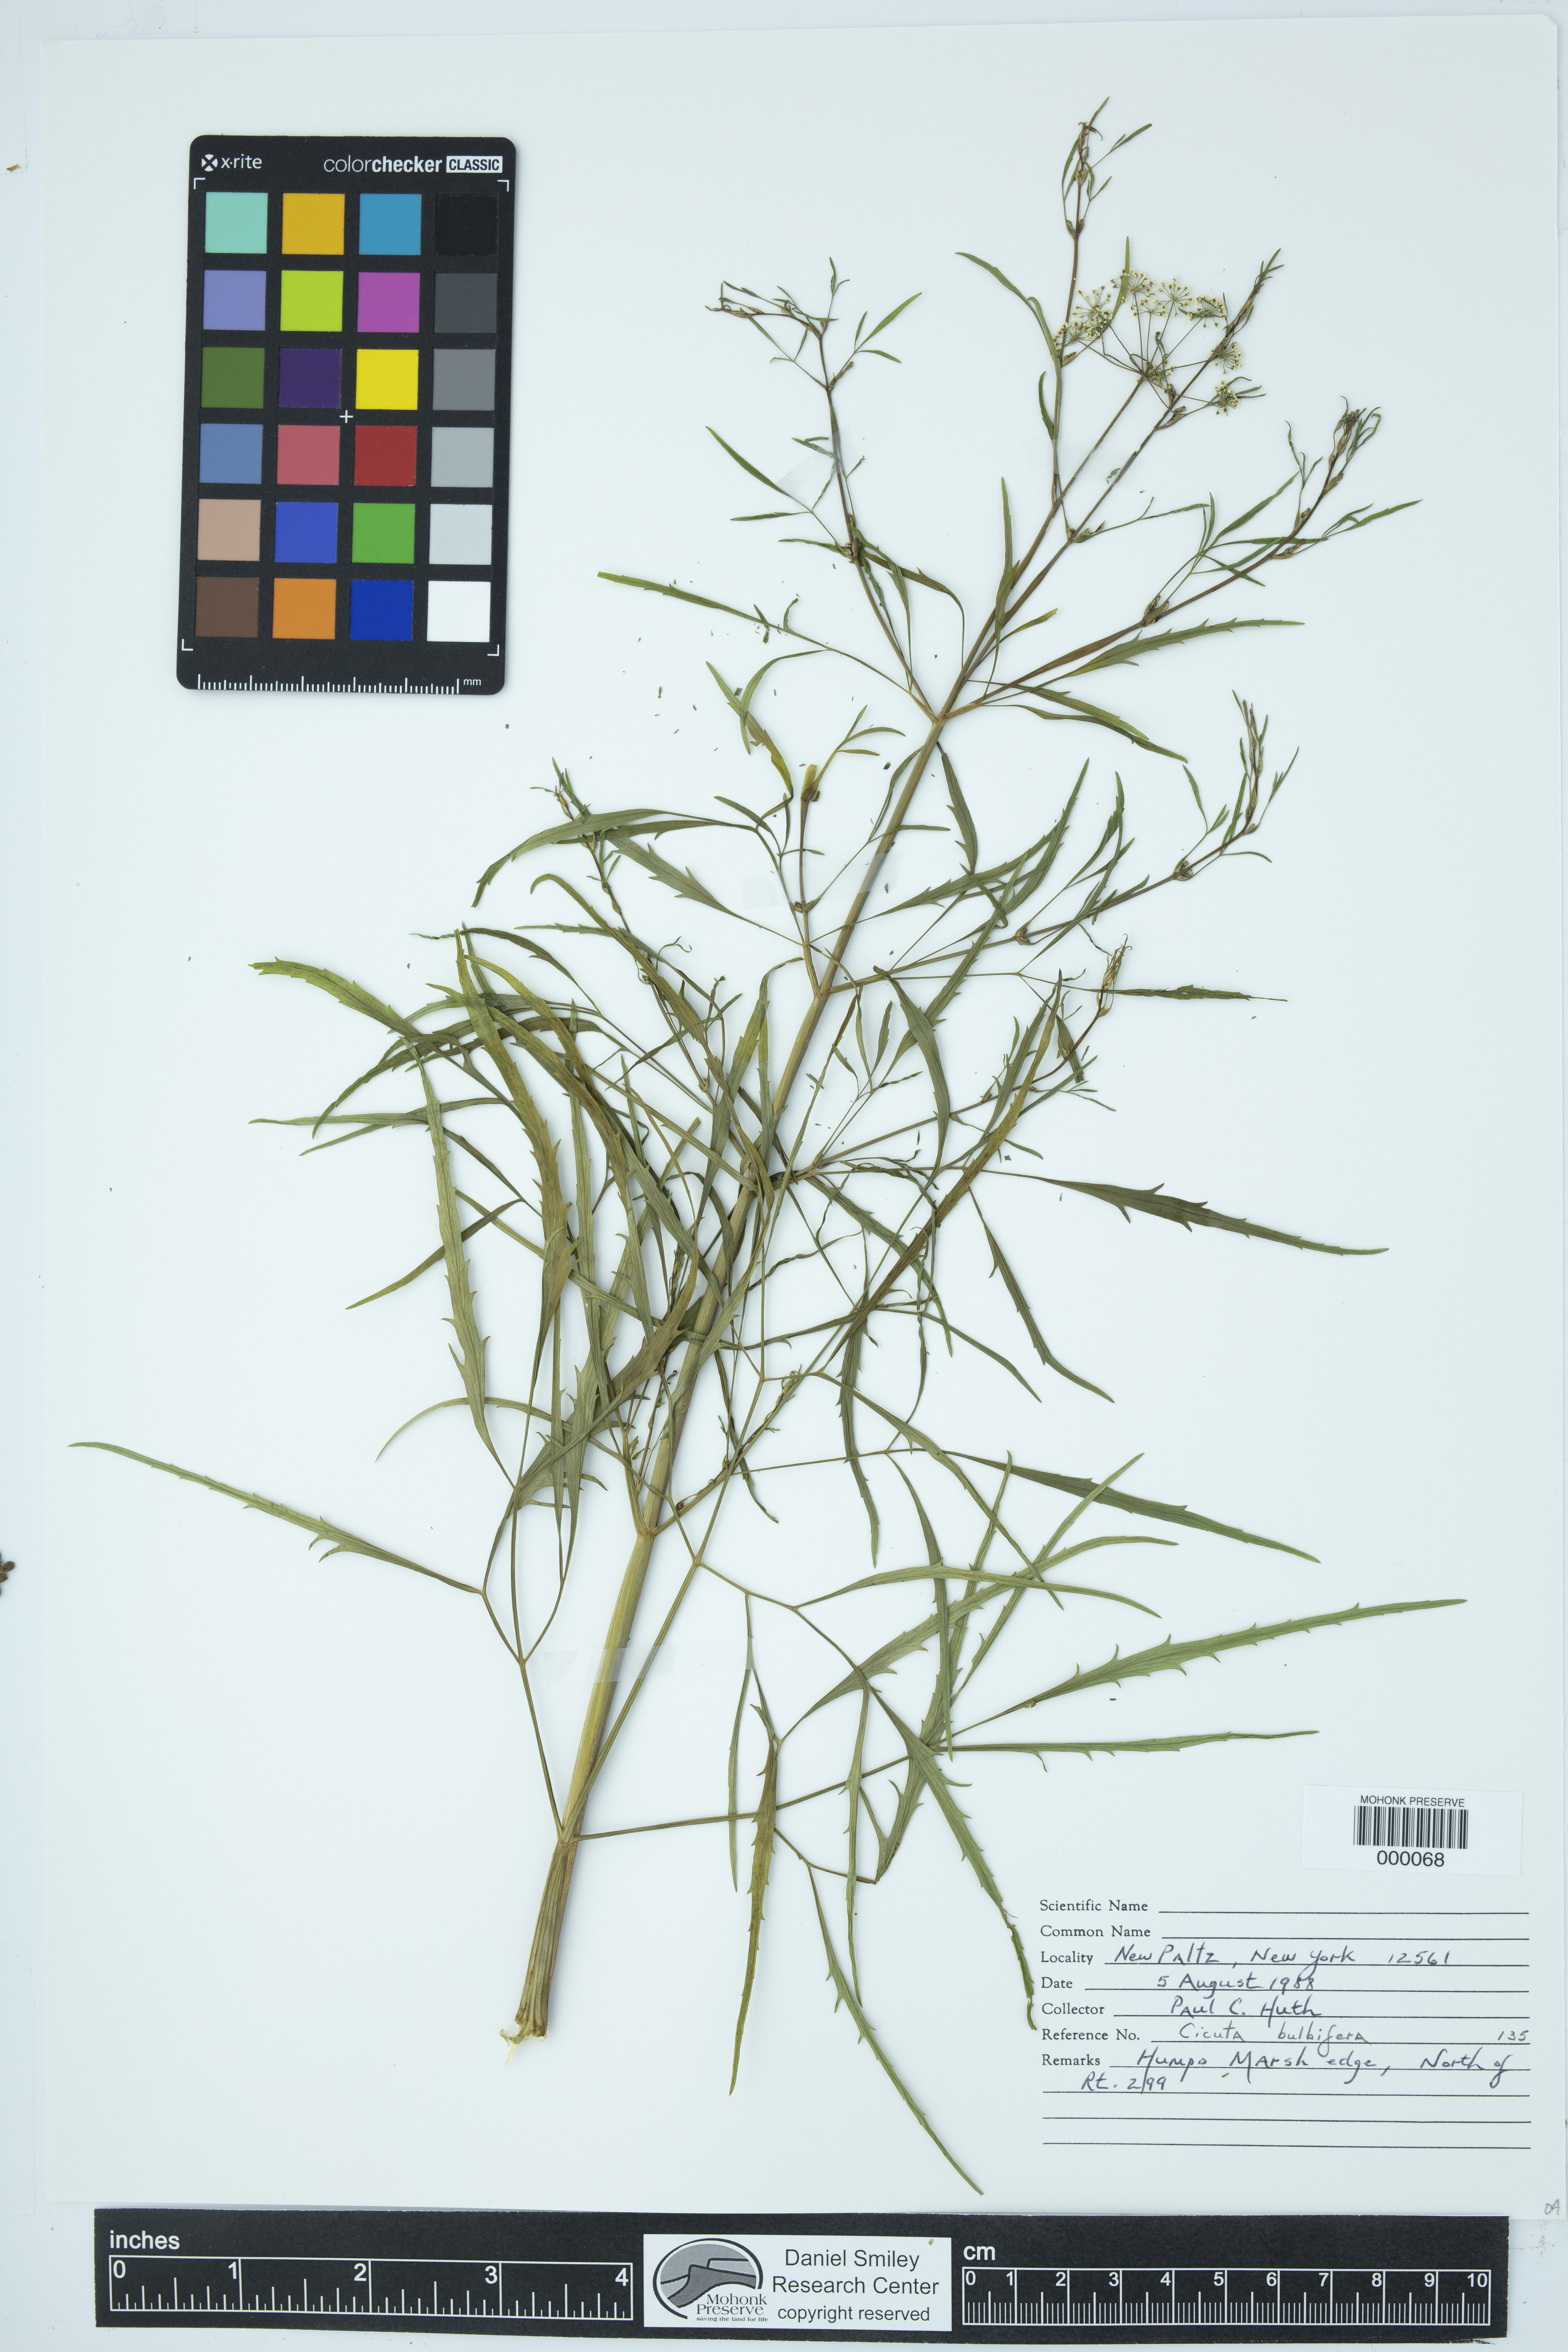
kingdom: Plantae
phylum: Tracheophyta
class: Magnoliopsida
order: Apiales
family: Apiaceae
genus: Cicuta
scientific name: Cicuta bulbifera
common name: Bulb-bearing water-hemlock
